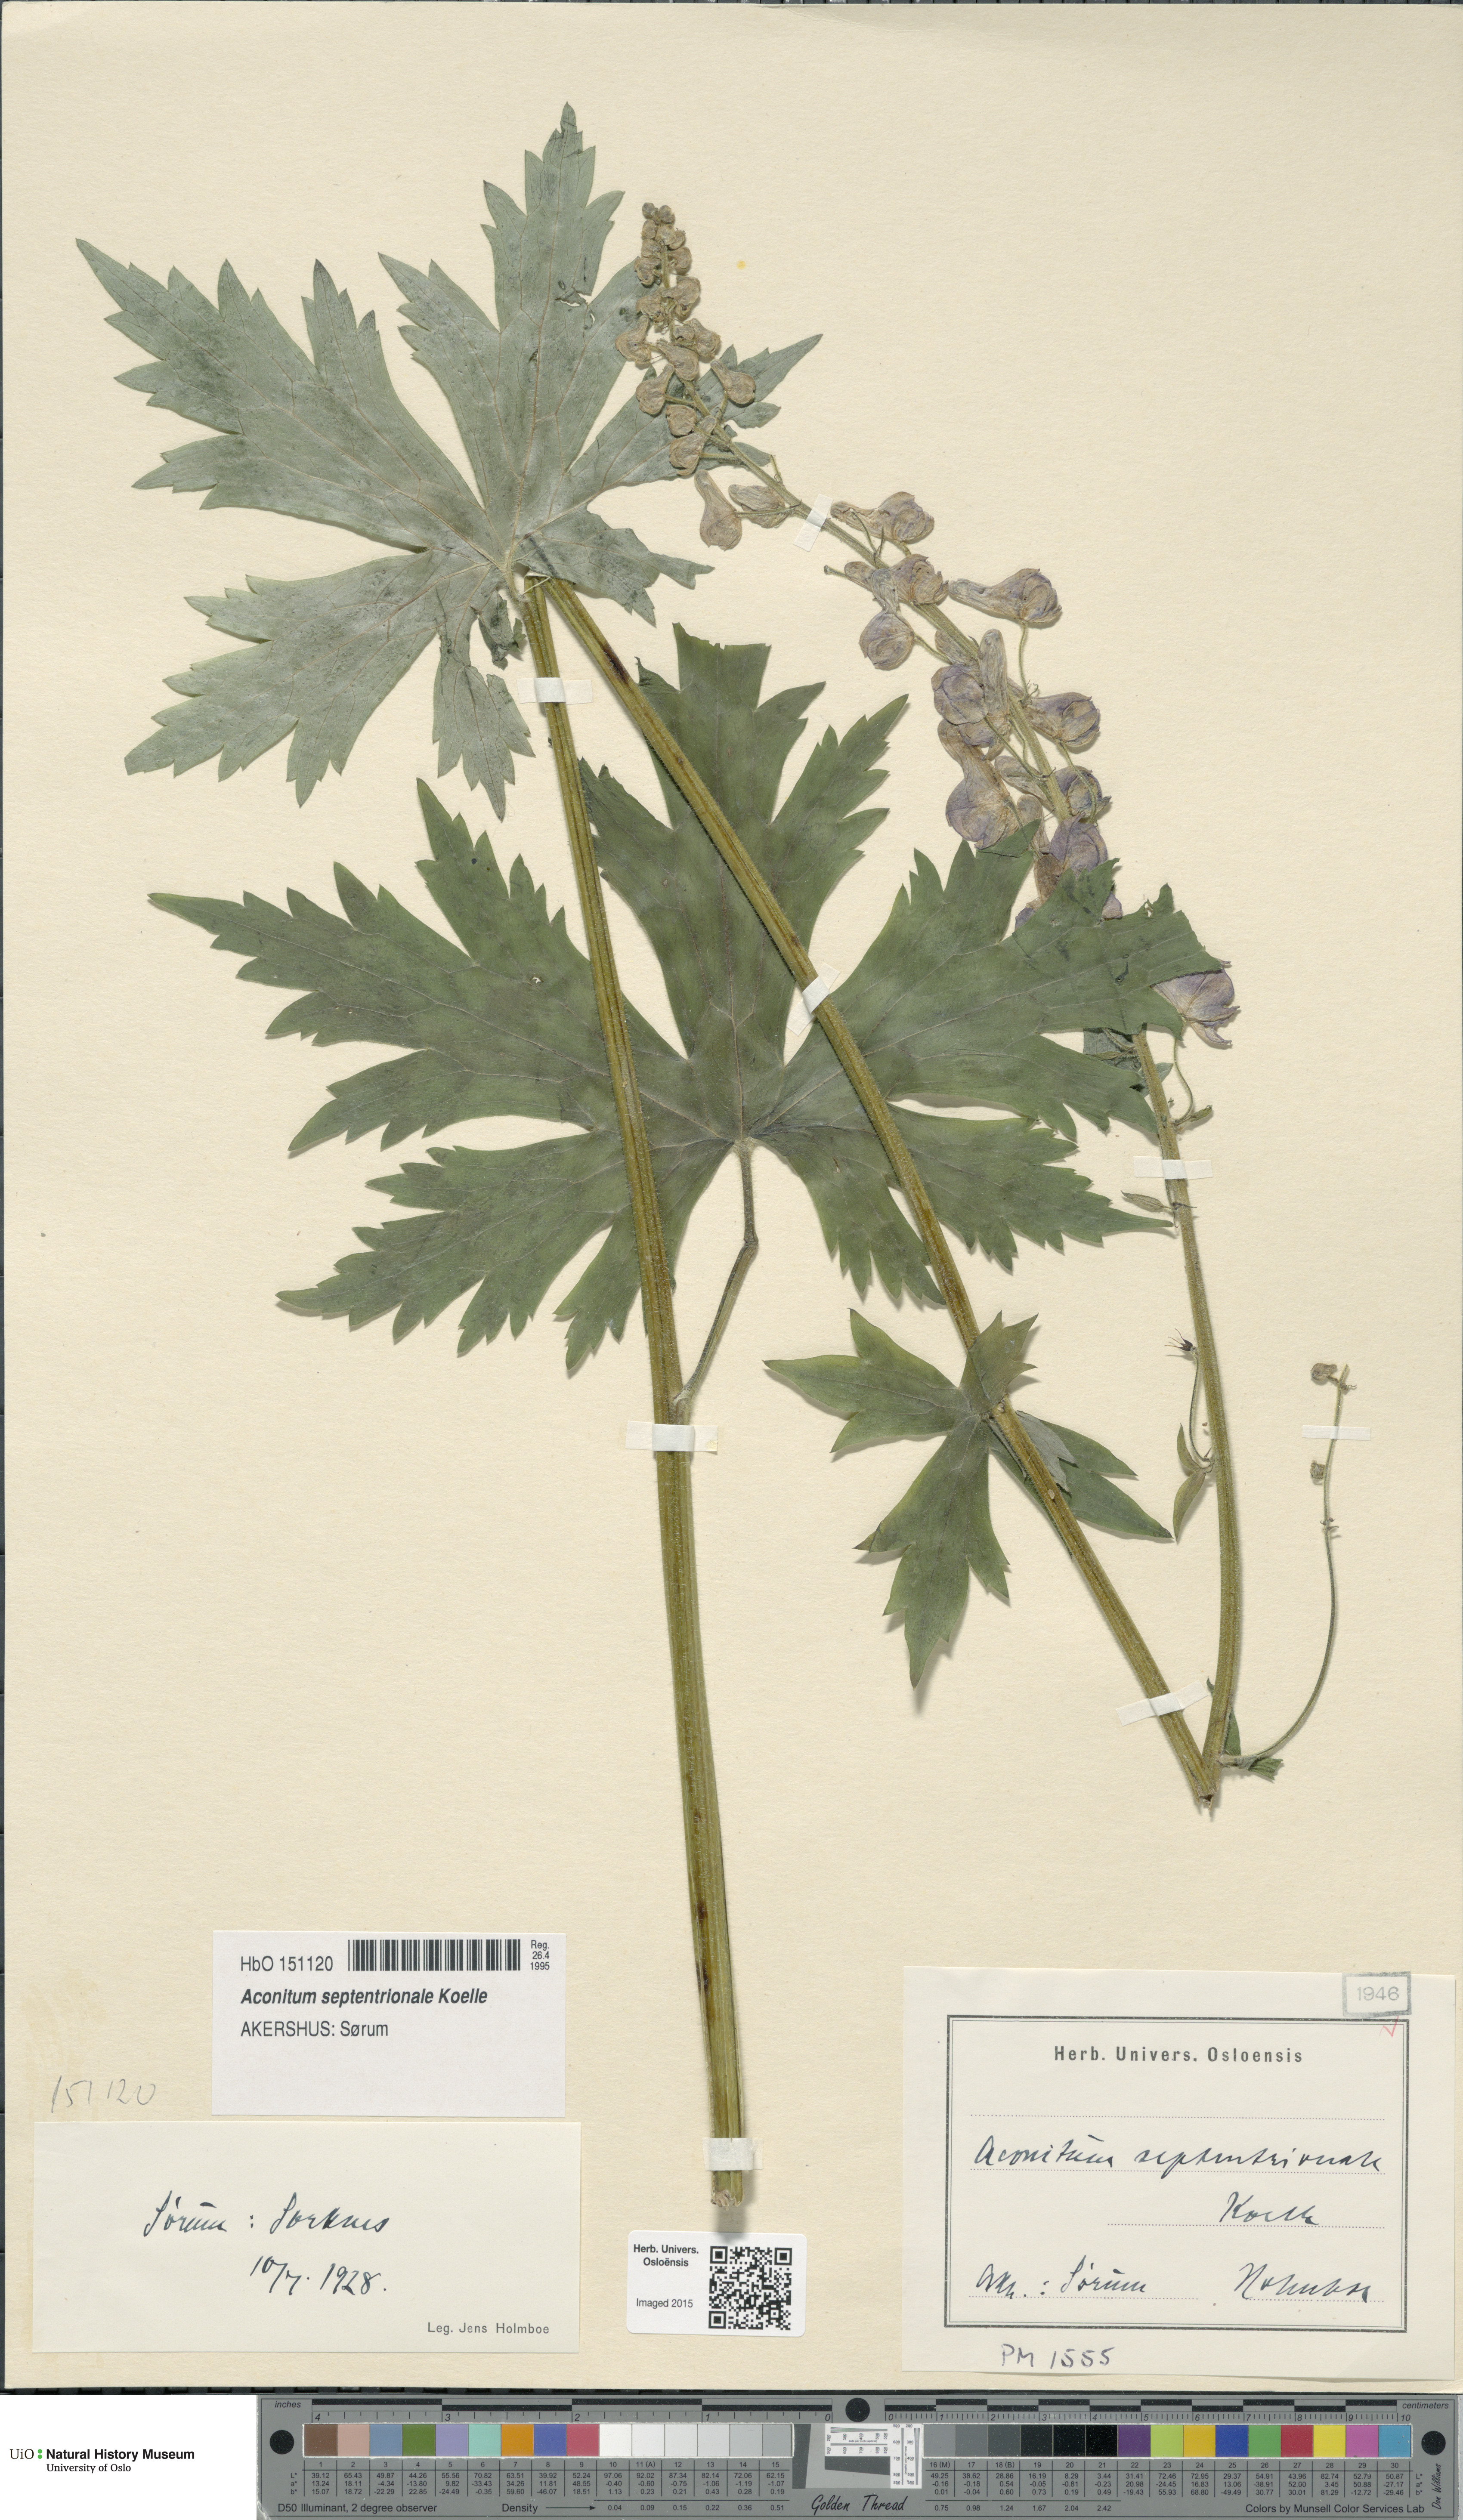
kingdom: Plantae
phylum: Tracheophyta
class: Magnoliopsida
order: Ranunculales
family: Ranunculaceae
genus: Aconitum
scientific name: Aconitum septentrionale
